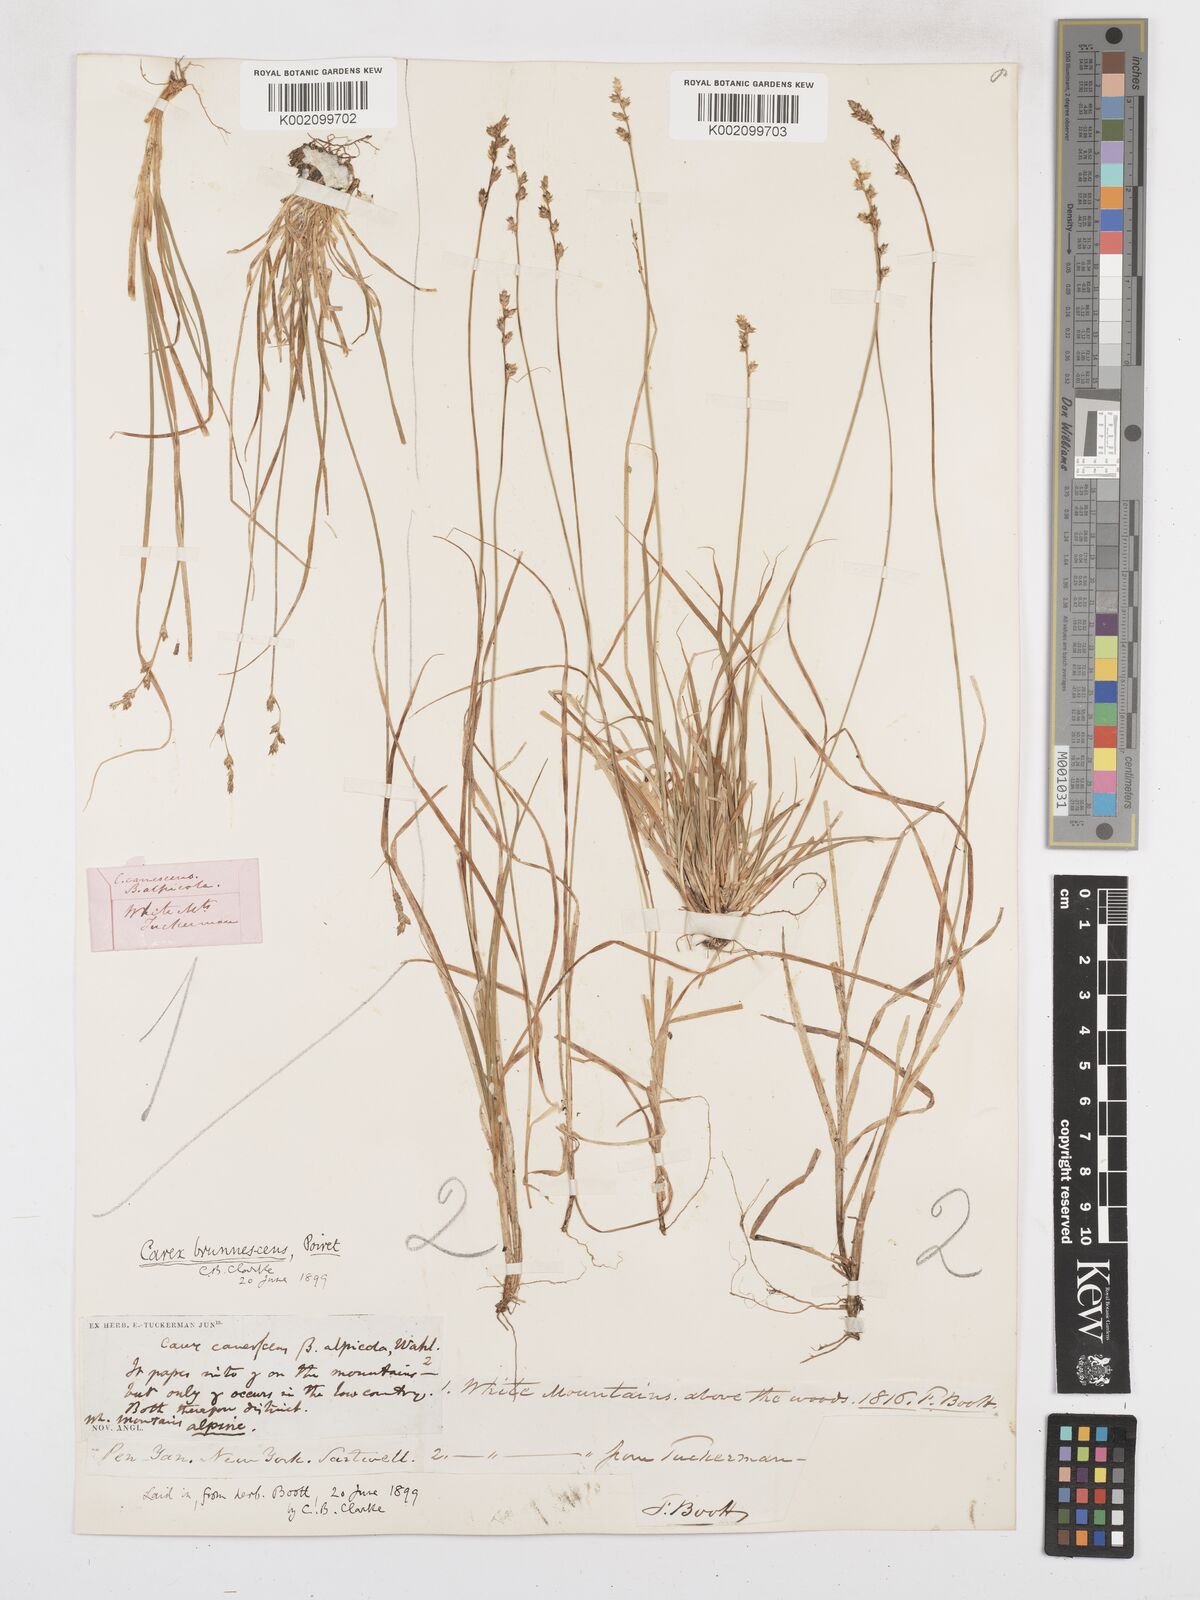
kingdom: Plantae
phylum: Tracheophyta
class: Liliopsida
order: Poales
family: Cyperaceae
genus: Carex
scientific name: Carex brunnescens
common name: Brown sedge
